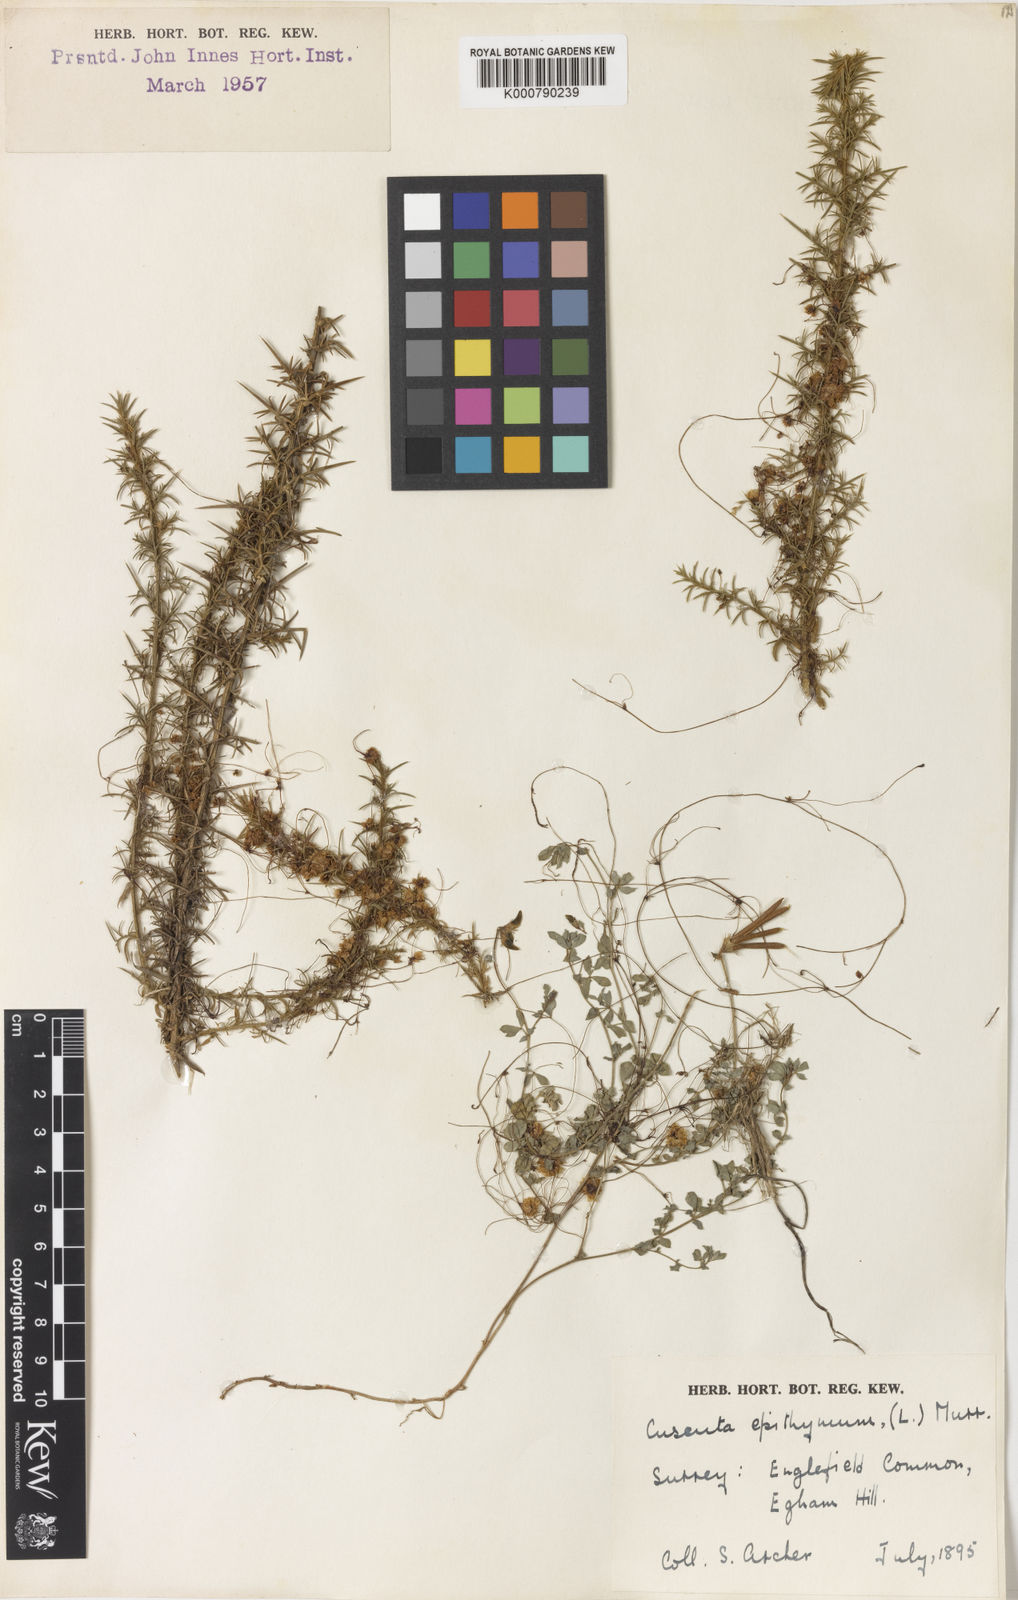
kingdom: Plantae
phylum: Tracheophyta
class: Magnoliopsida
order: Solanales
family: Convolvulaceae
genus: Cuscuta
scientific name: Cuscuta epithymum
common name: Clover dodder
